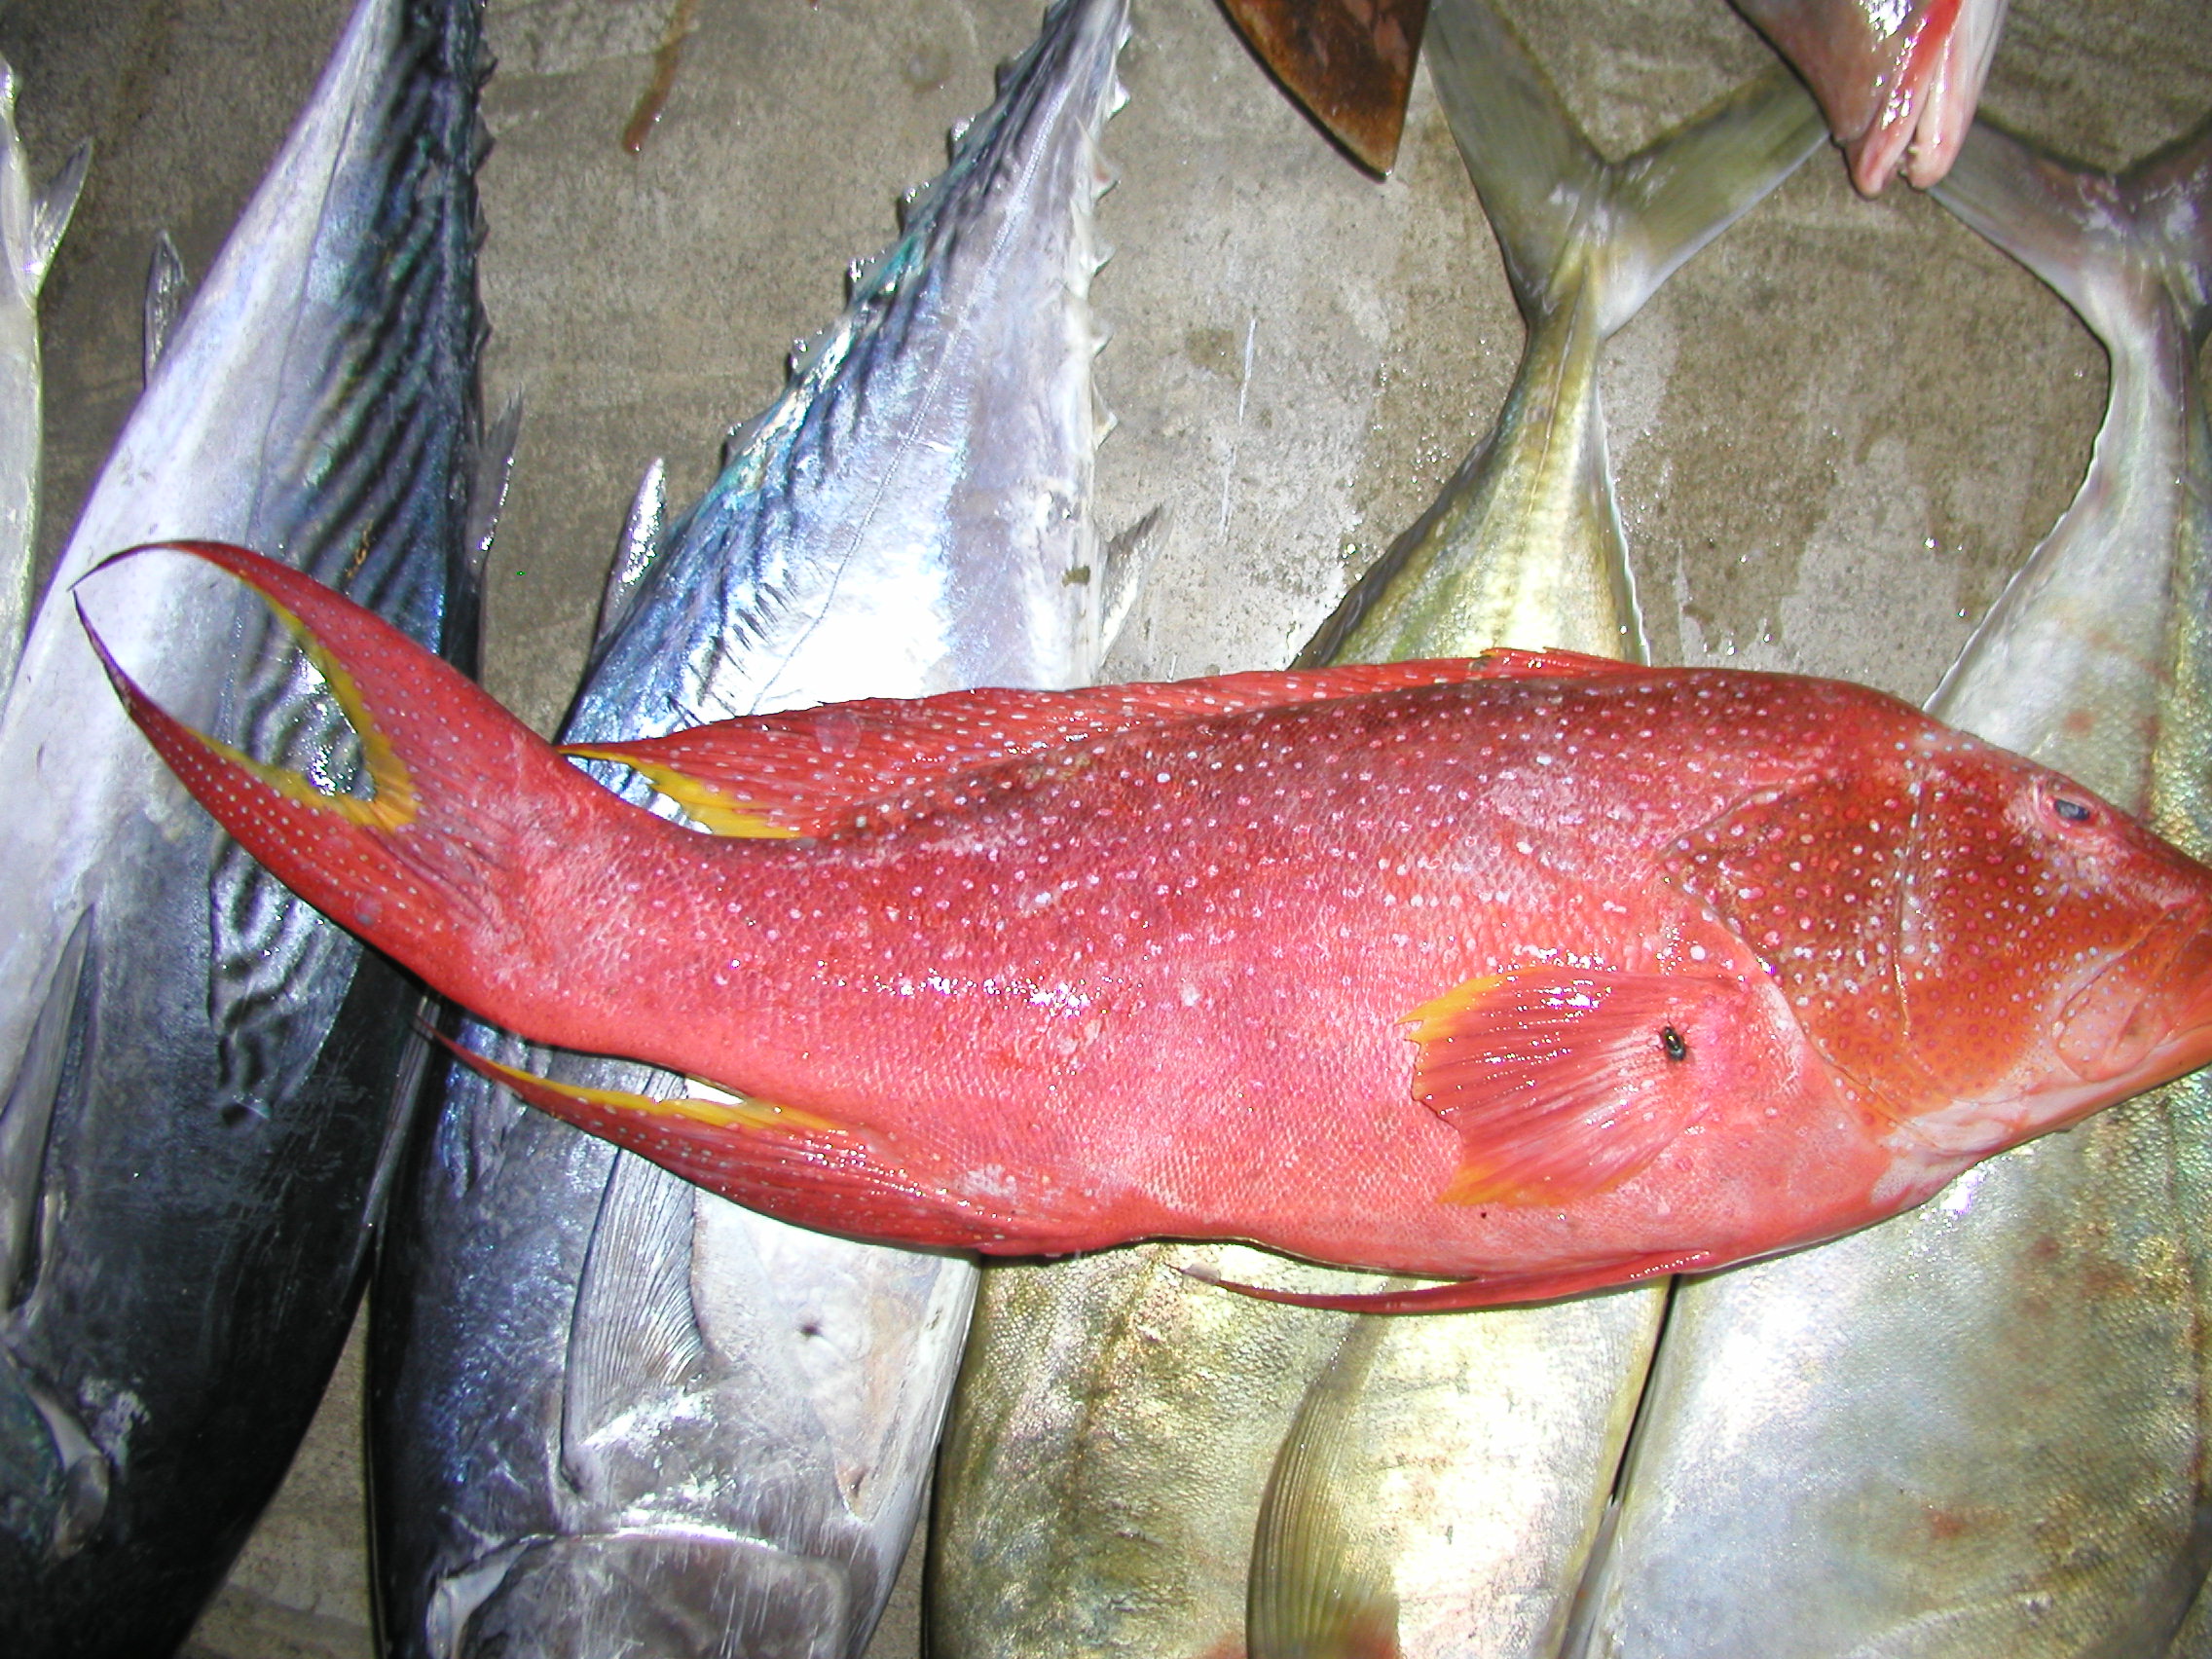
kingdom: Animalia
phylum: Chordata
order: Perciformes
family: Serranidae
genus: Variola
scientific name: Variola louti
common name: Yellow-edged lyretail
